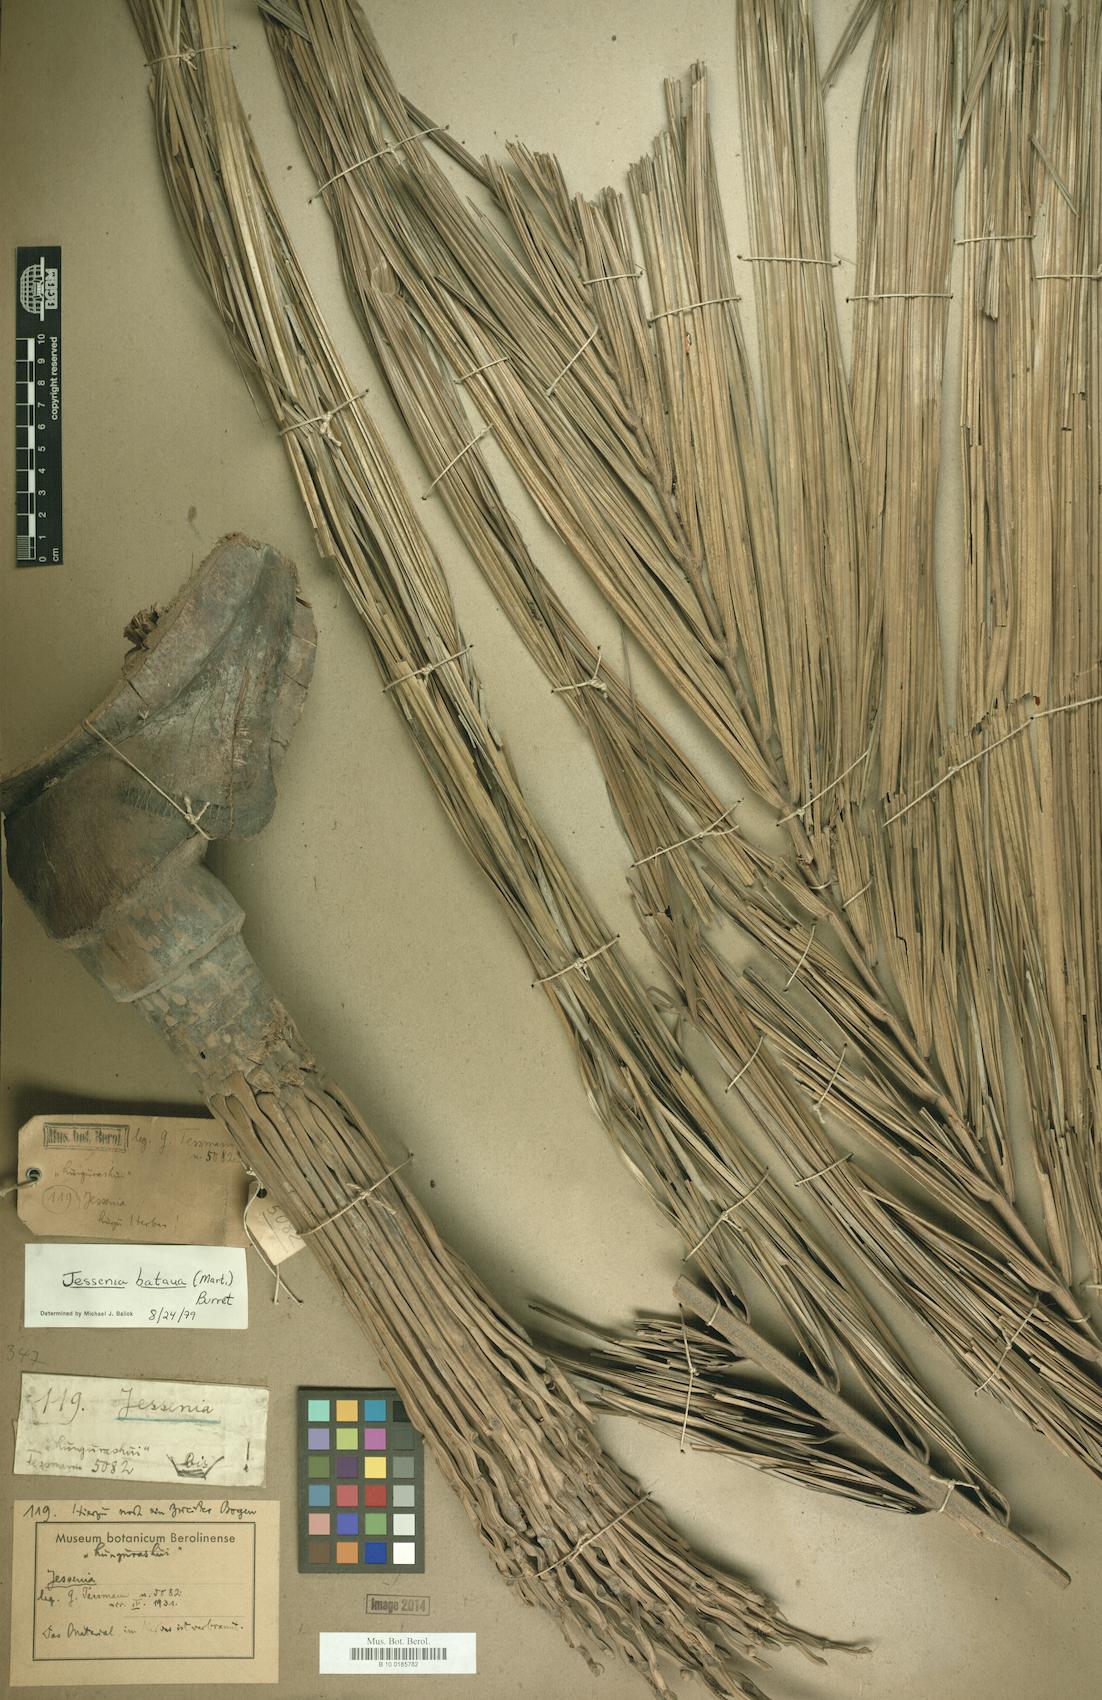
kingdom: Plantae
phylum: Tracheophyta
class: Liliopsida
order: Arecales
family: Arecaceae
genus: Oenocarpus
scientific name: Oenocarpus bataua
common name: Bataua palm
